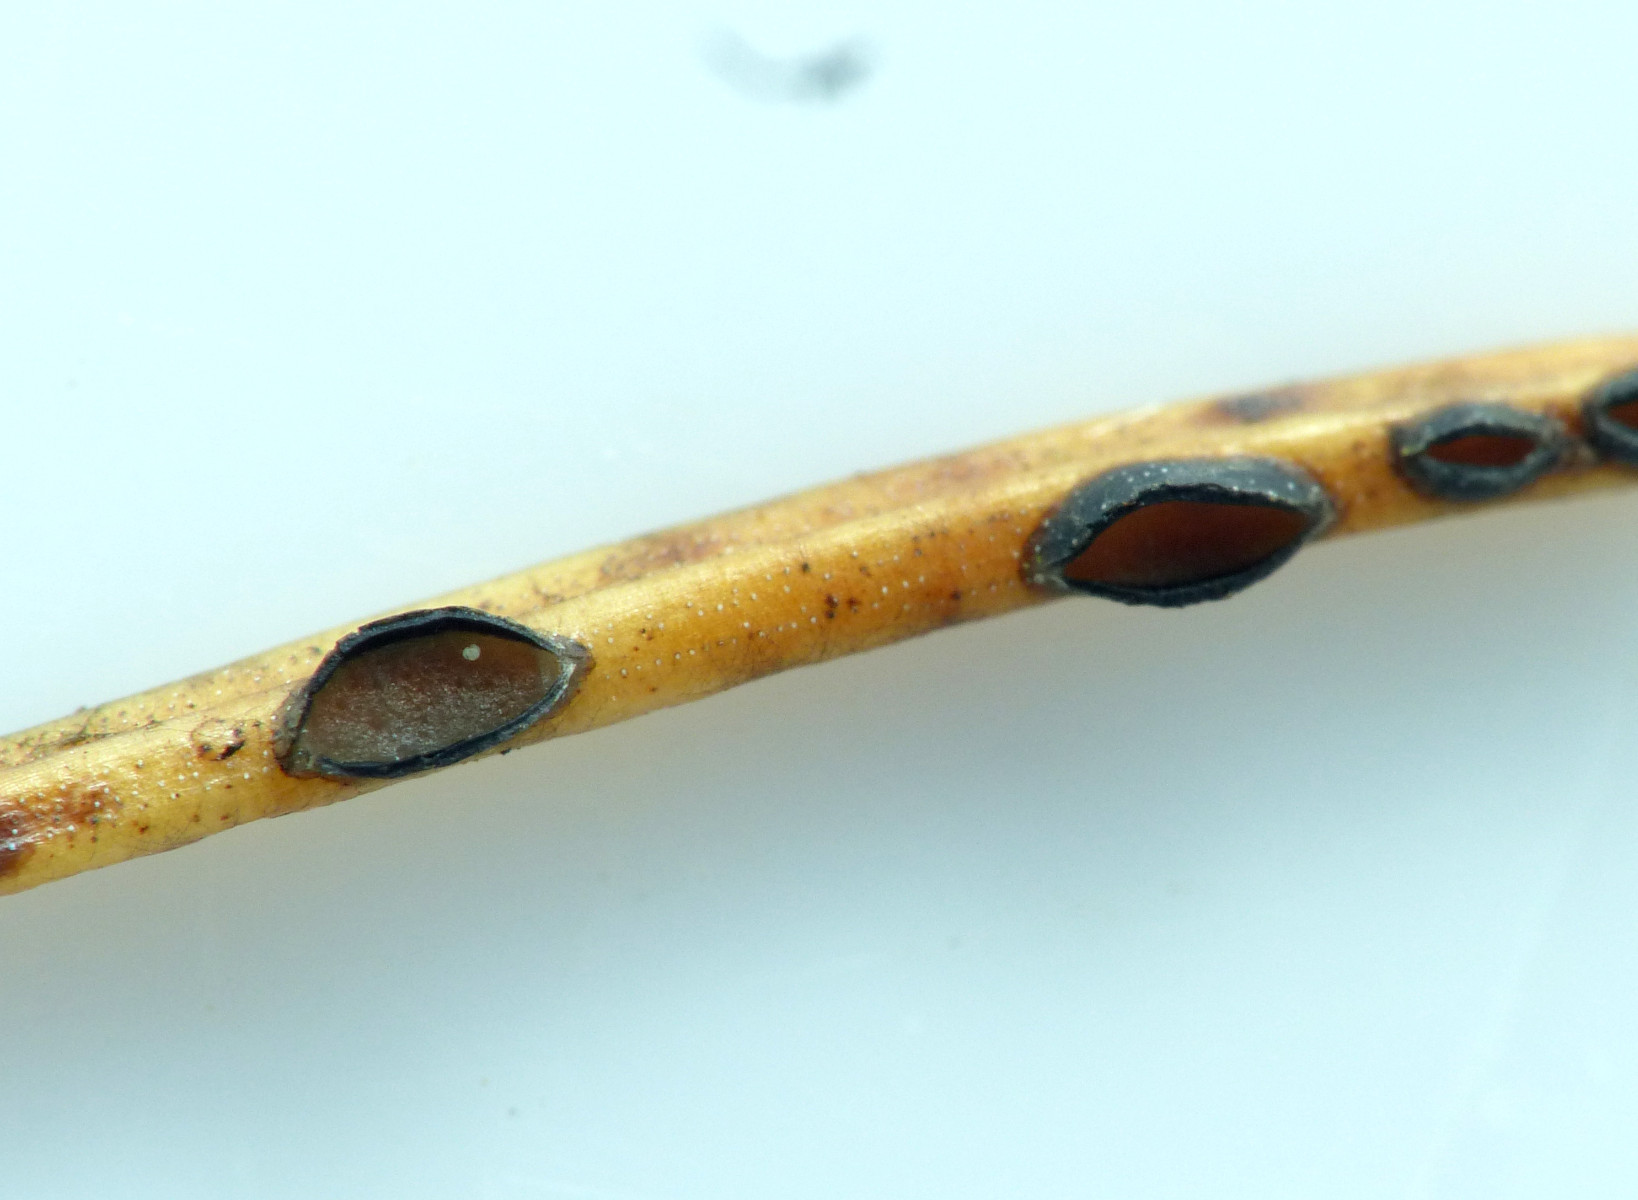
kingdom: Plantae
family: Rhytismatales
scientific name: Rhytismatales
